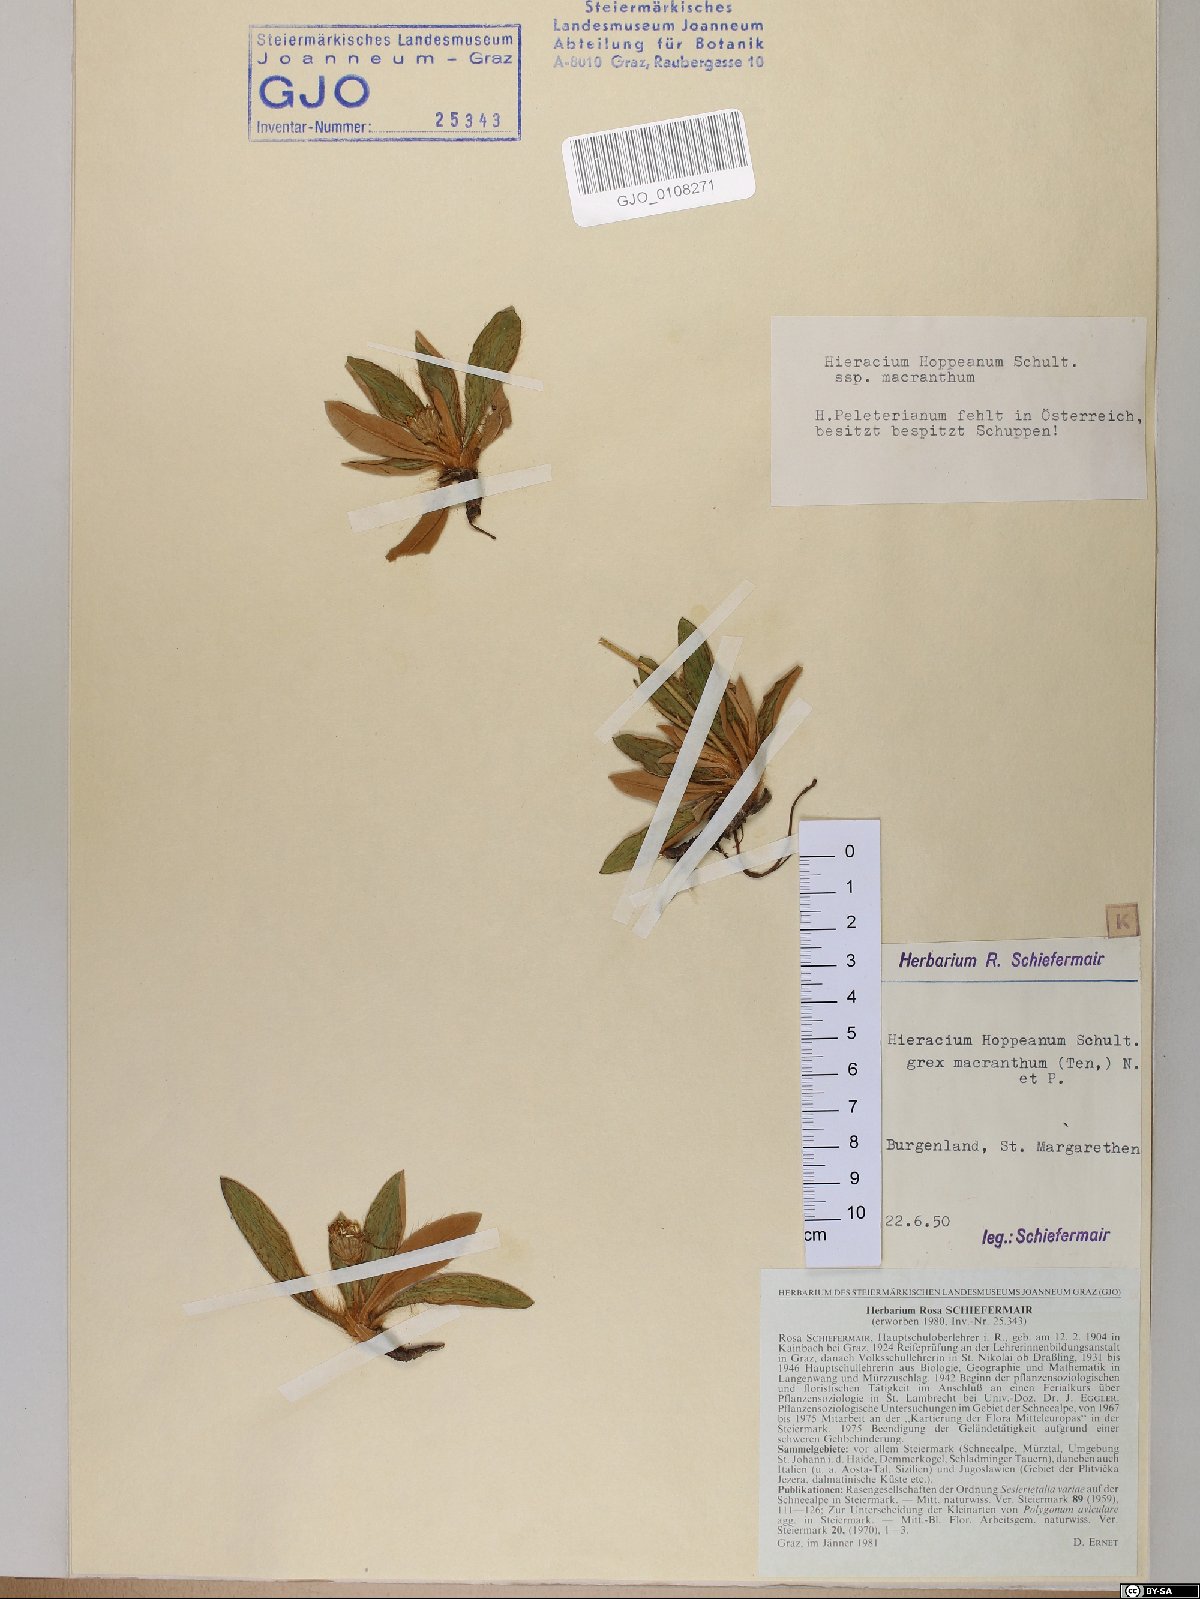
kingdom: Plantae
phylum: Tracheophyta
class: Magnoliopsida
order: Asterales
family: Asteraceae
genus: Pilosella
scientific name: Pilosella hoppeana
